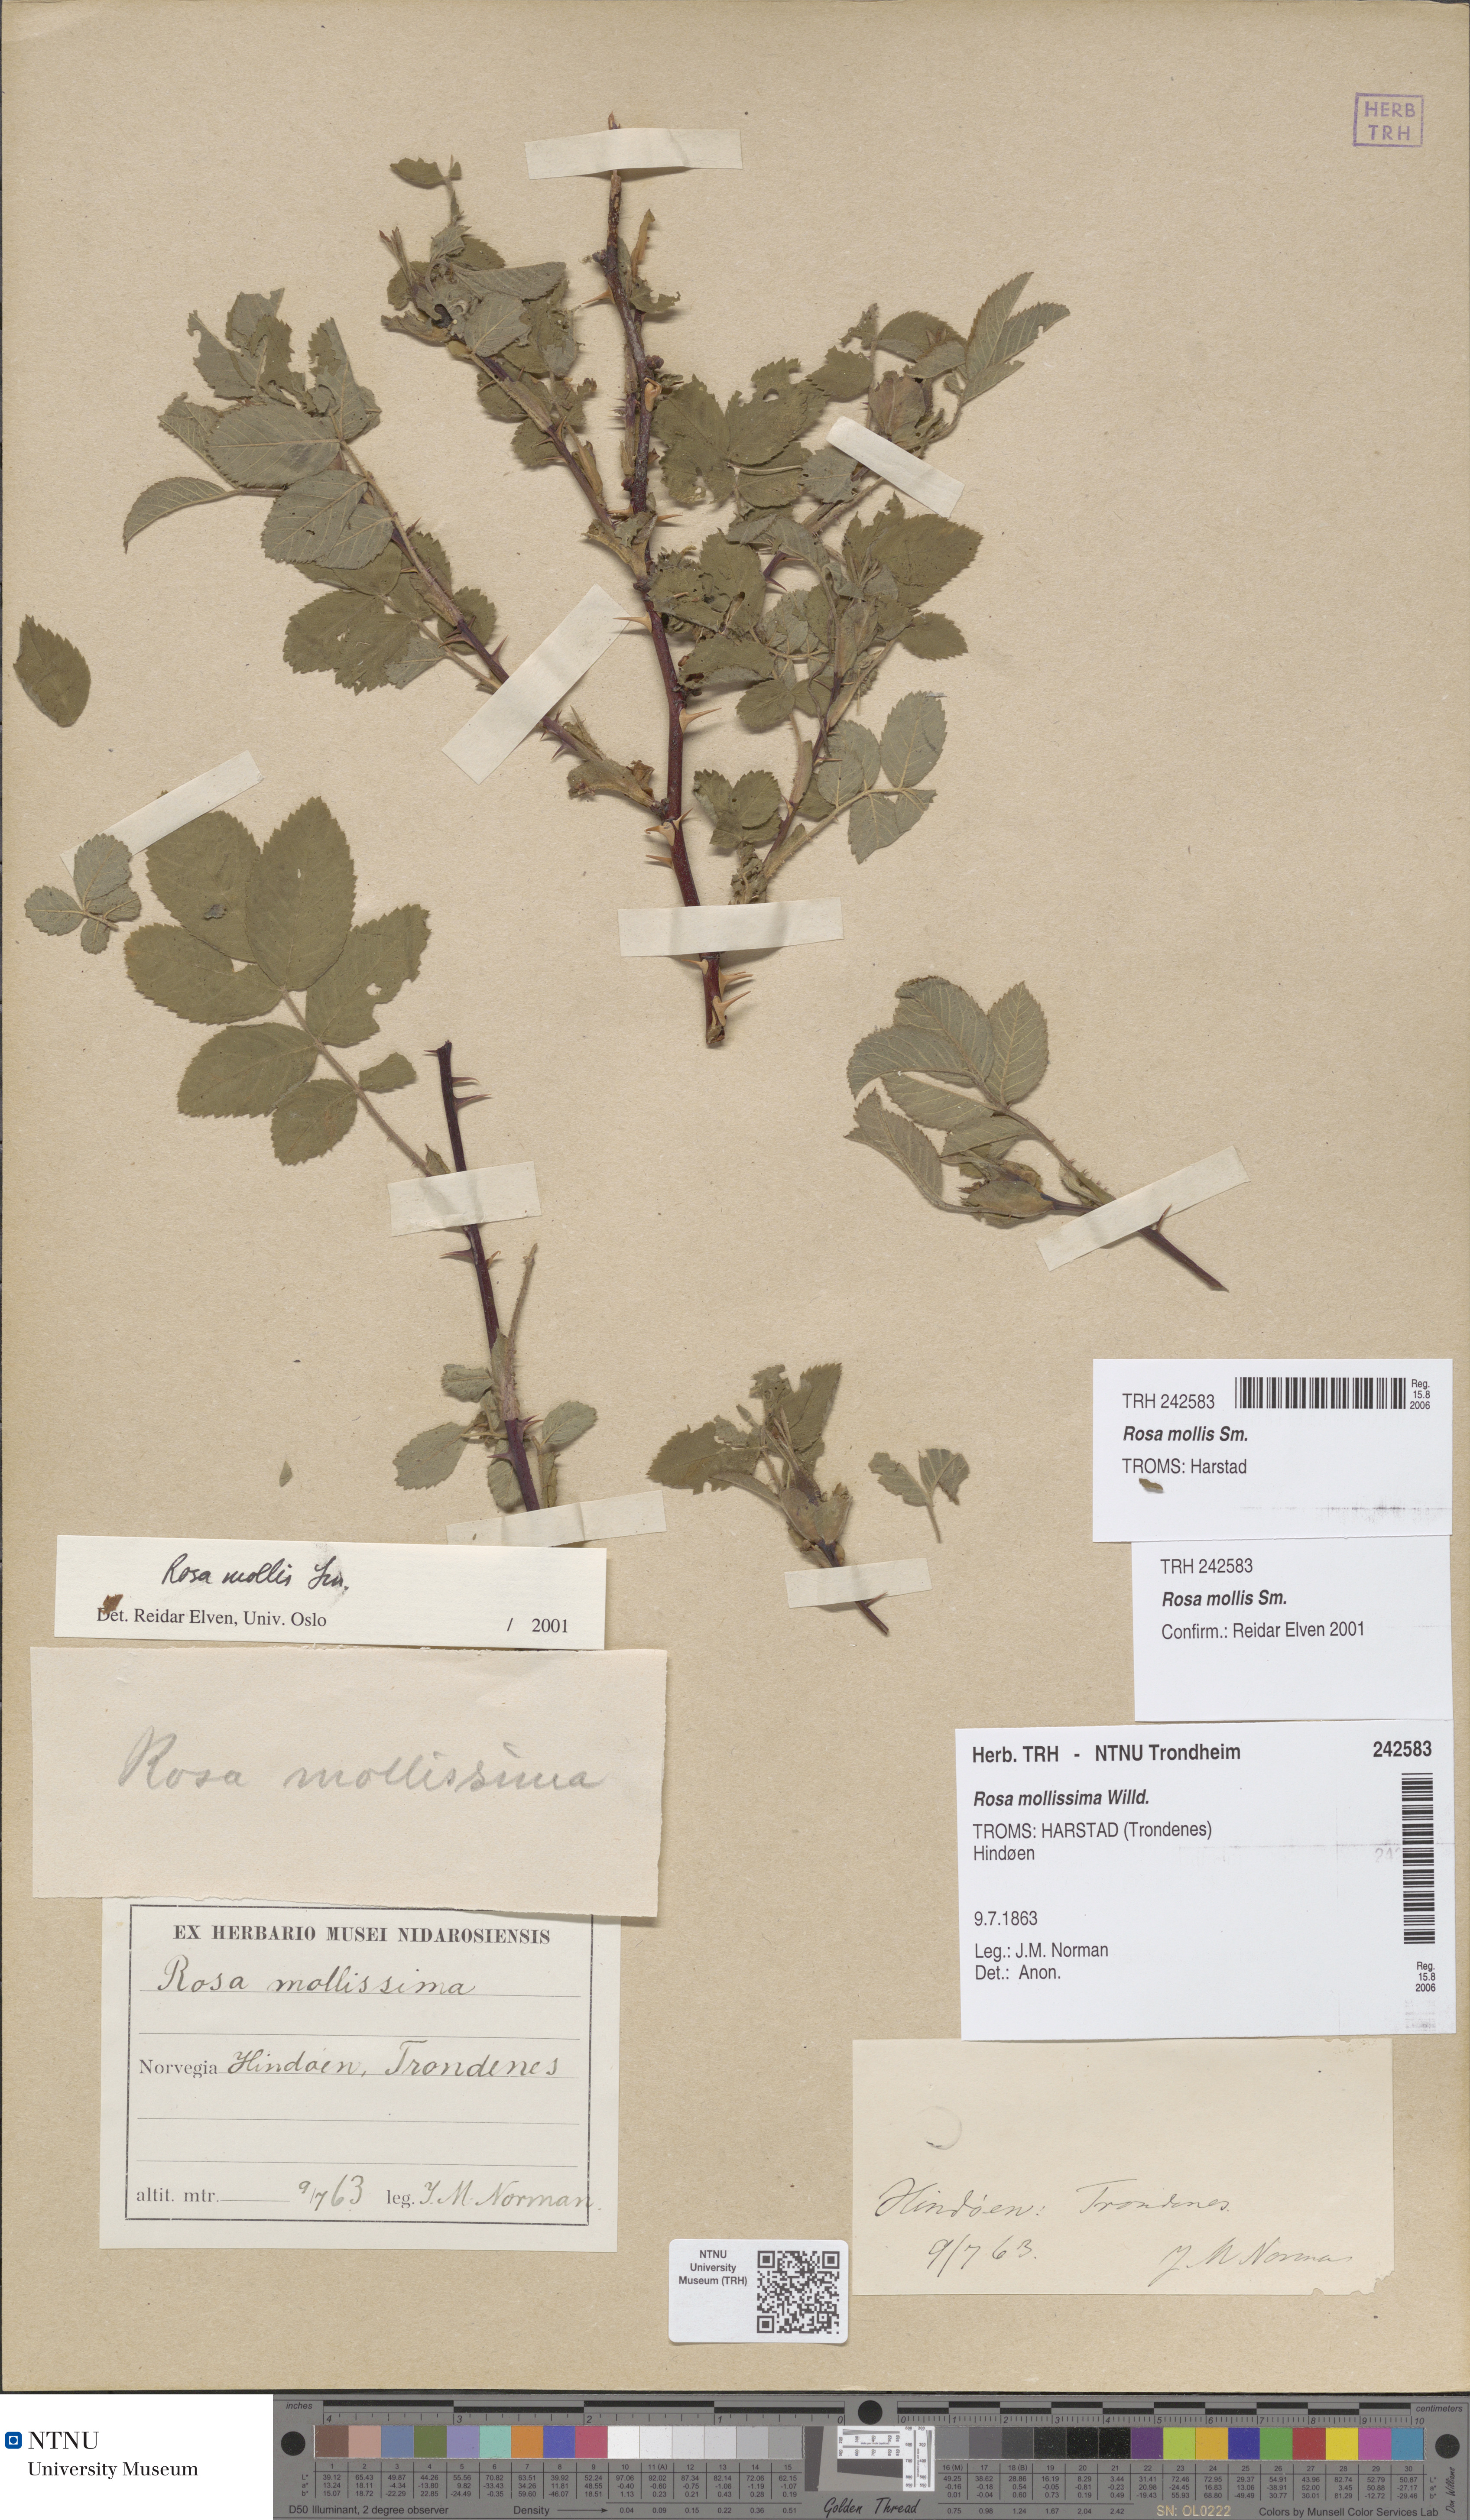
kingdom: Plantae
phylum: Tracheophyta
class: Magnoliopsida
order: Rosales
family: Rosaceae
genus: Rosa
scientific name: Rosa mollis
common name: Rose
